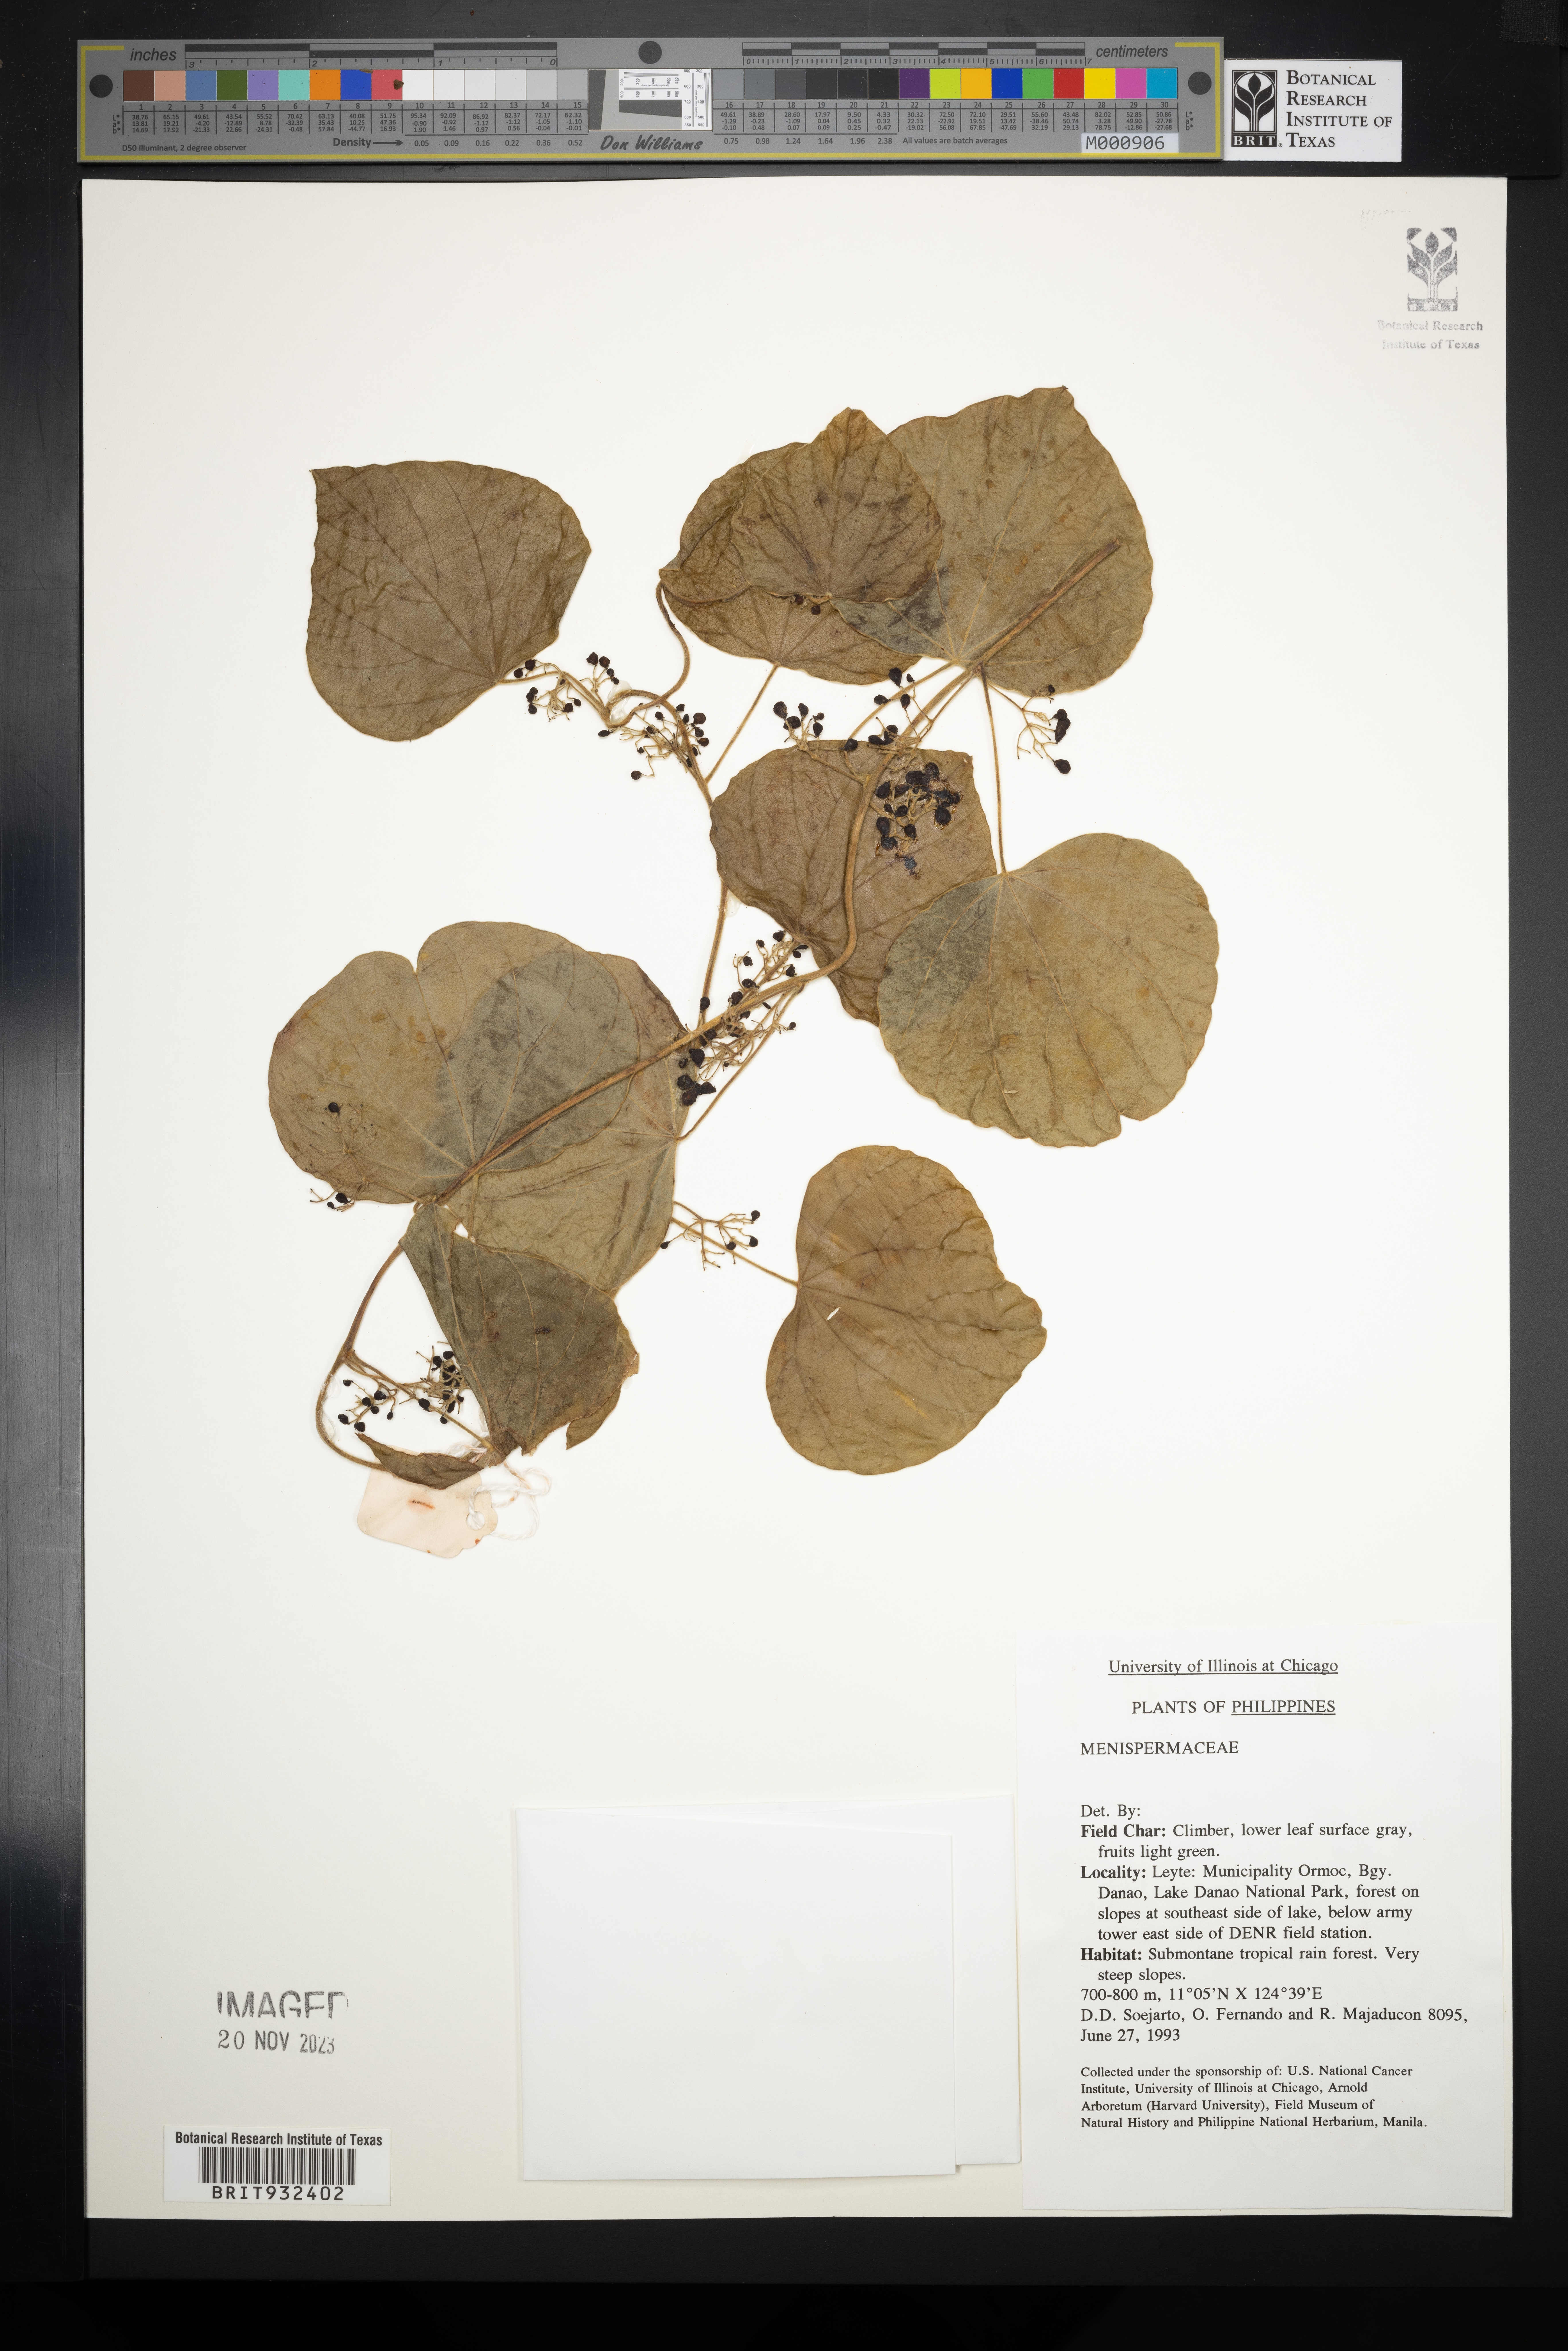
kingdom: Plantae
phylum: Tracheophyta
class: Magnoliopsida
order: Ranunculales
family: Menispermaceae
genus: Pericampylus
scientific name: Pericampylus
